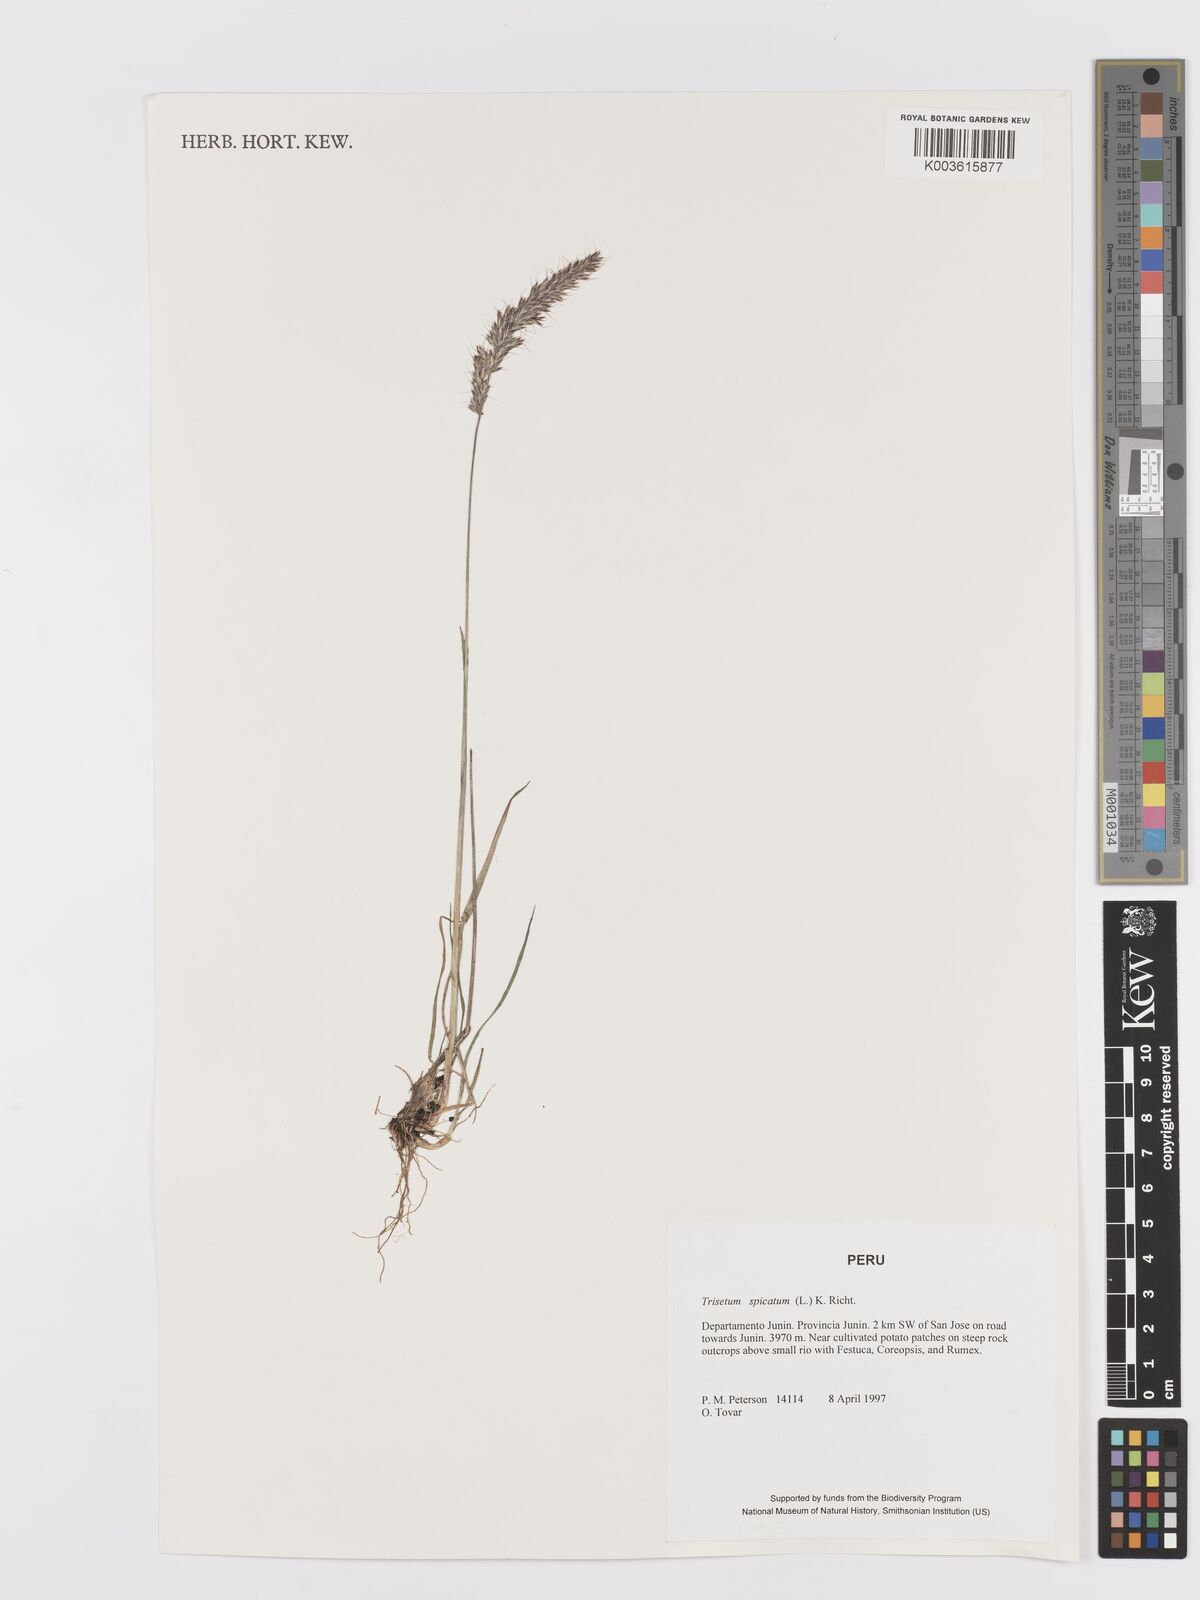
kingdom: Plantae
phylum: Tracheophyta
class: Liliopsida
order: Poales
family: Poaceae
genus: Koeleria
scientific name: Koeleria spicata
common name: Mountain trisetum
